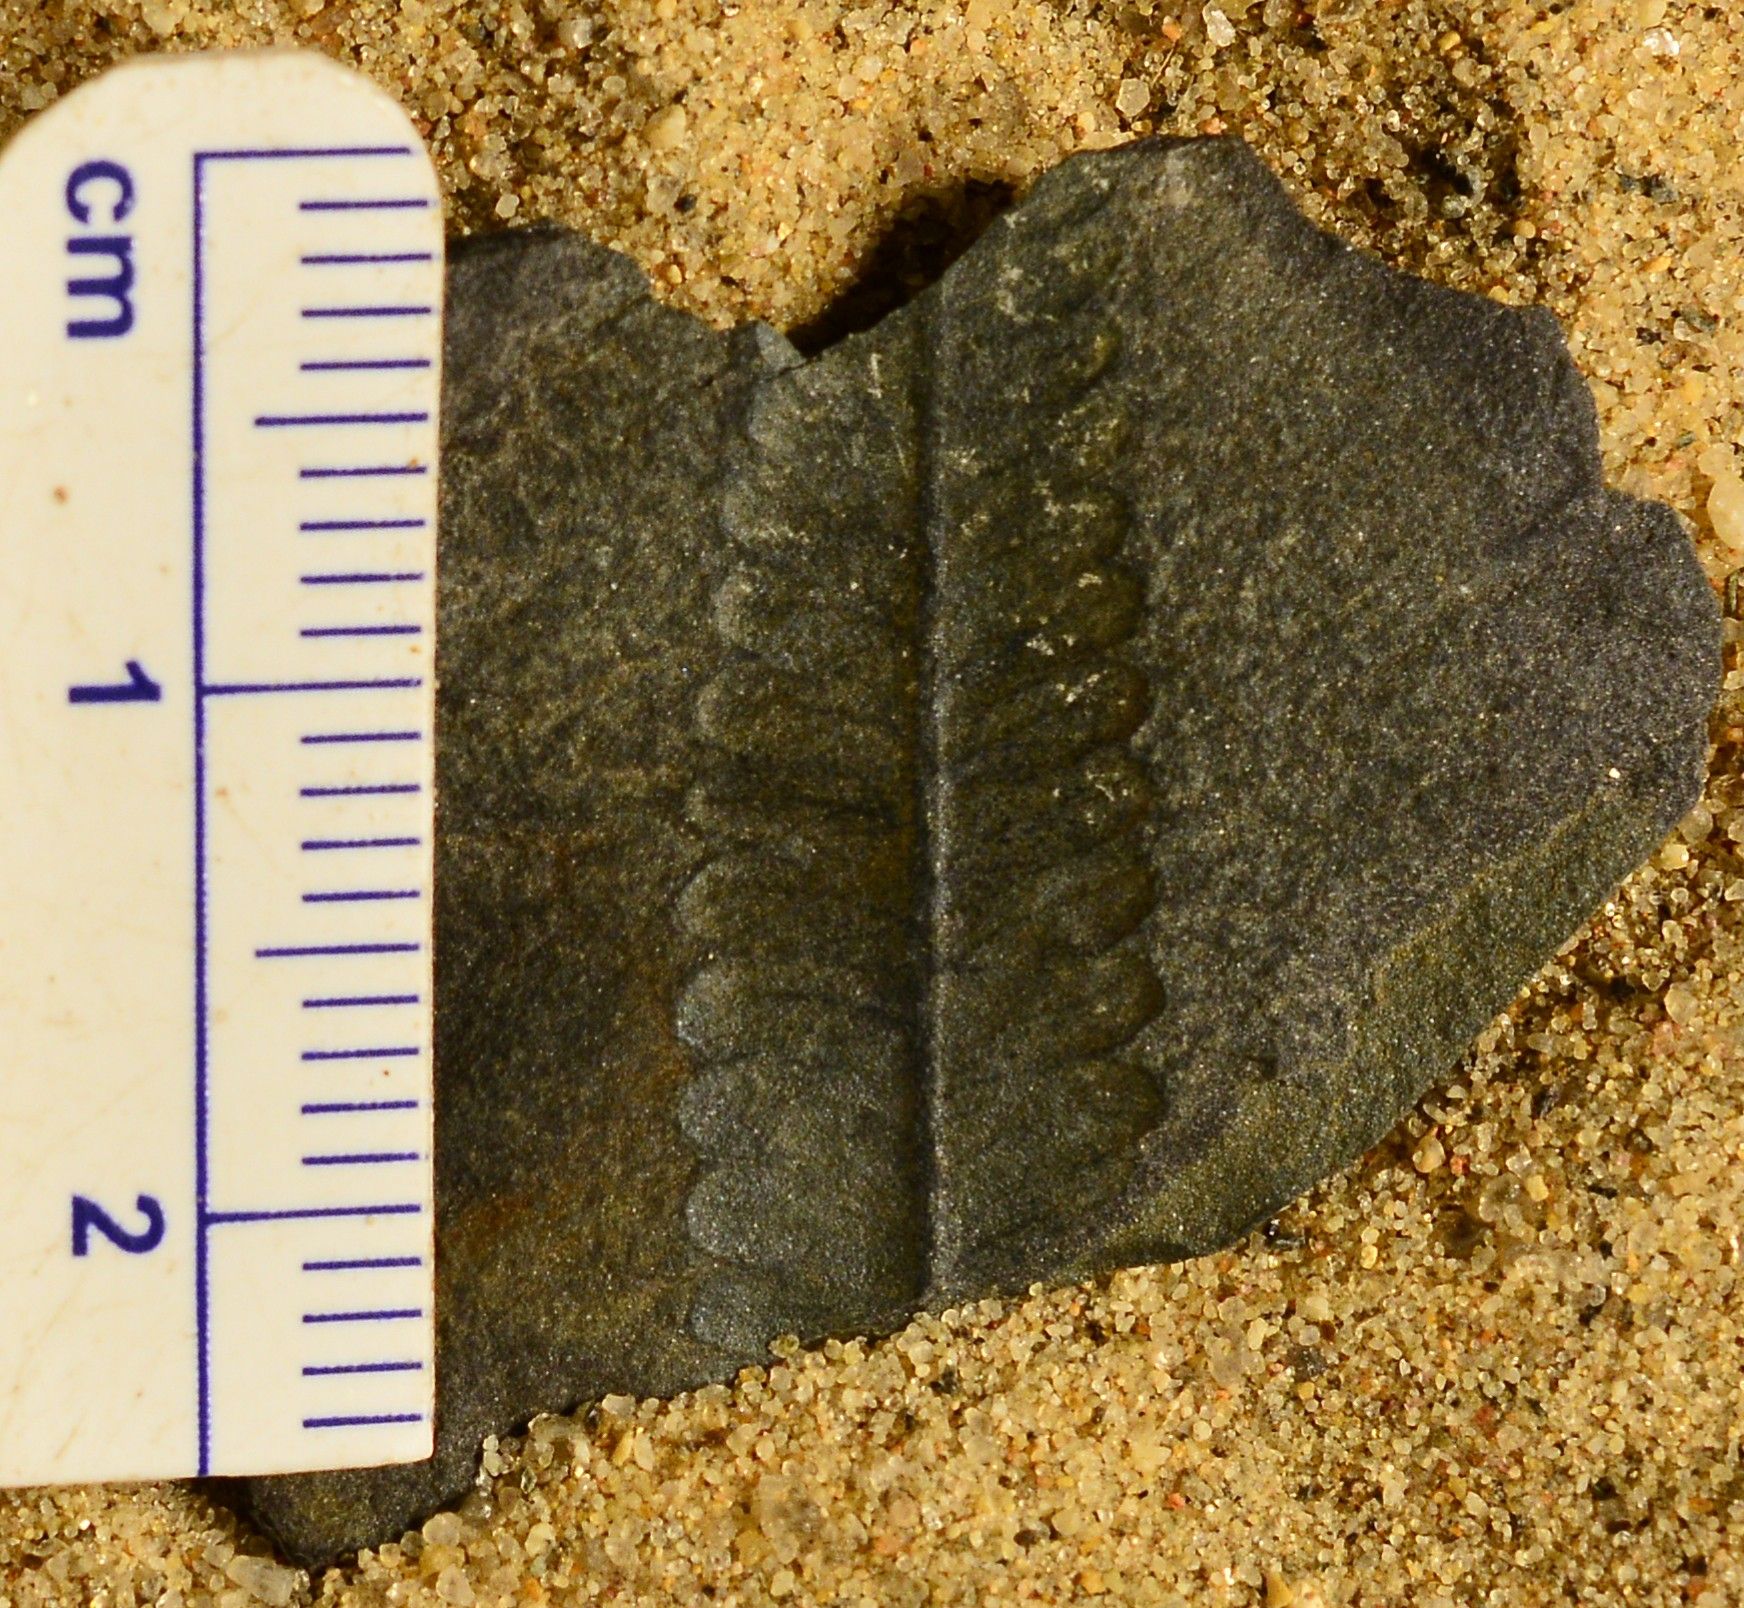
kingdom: Plantae
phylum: Tracheophyta
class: Polypodiopsida
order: Marattiales
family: Asterothecaceae
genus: Pecopteris
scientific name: Pecopteris
